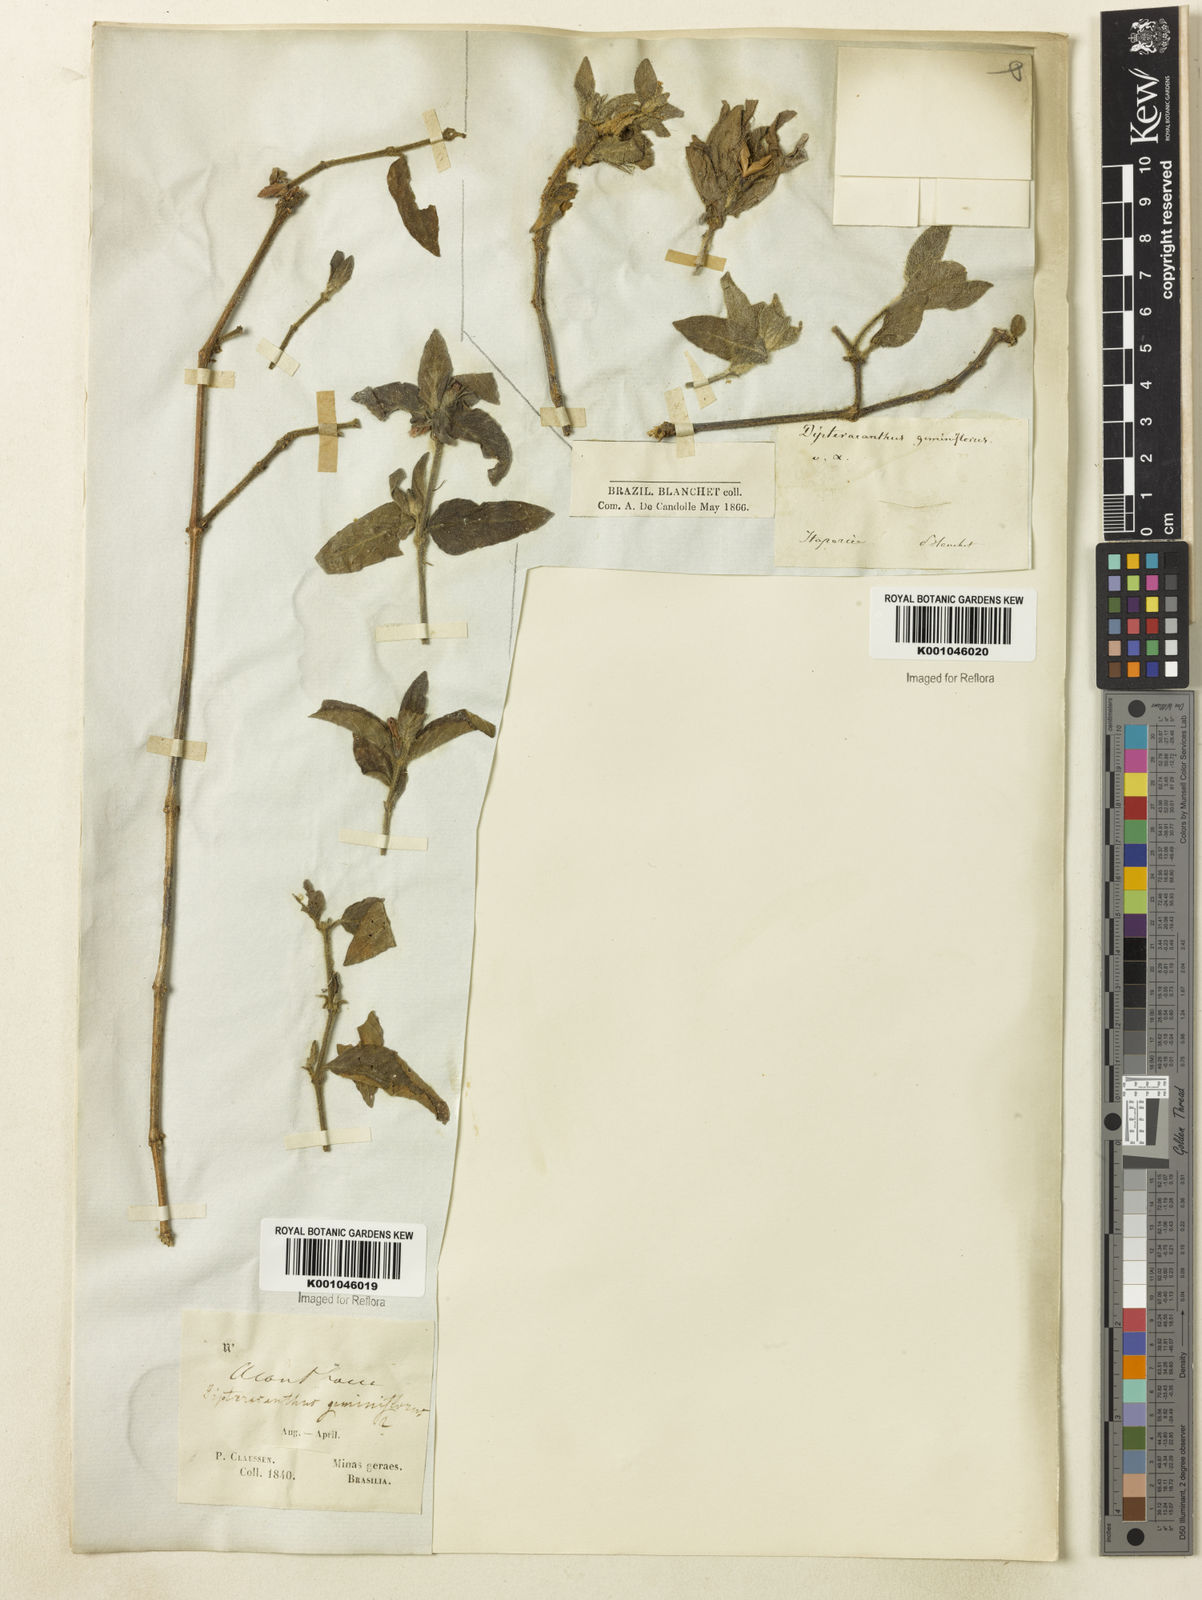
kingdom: Plantae
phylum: Tracheophyta
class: Magnoliopsida
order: Lamiales
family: Acanthaceae
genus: Ruellia
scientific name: Ruellia geminiflora
